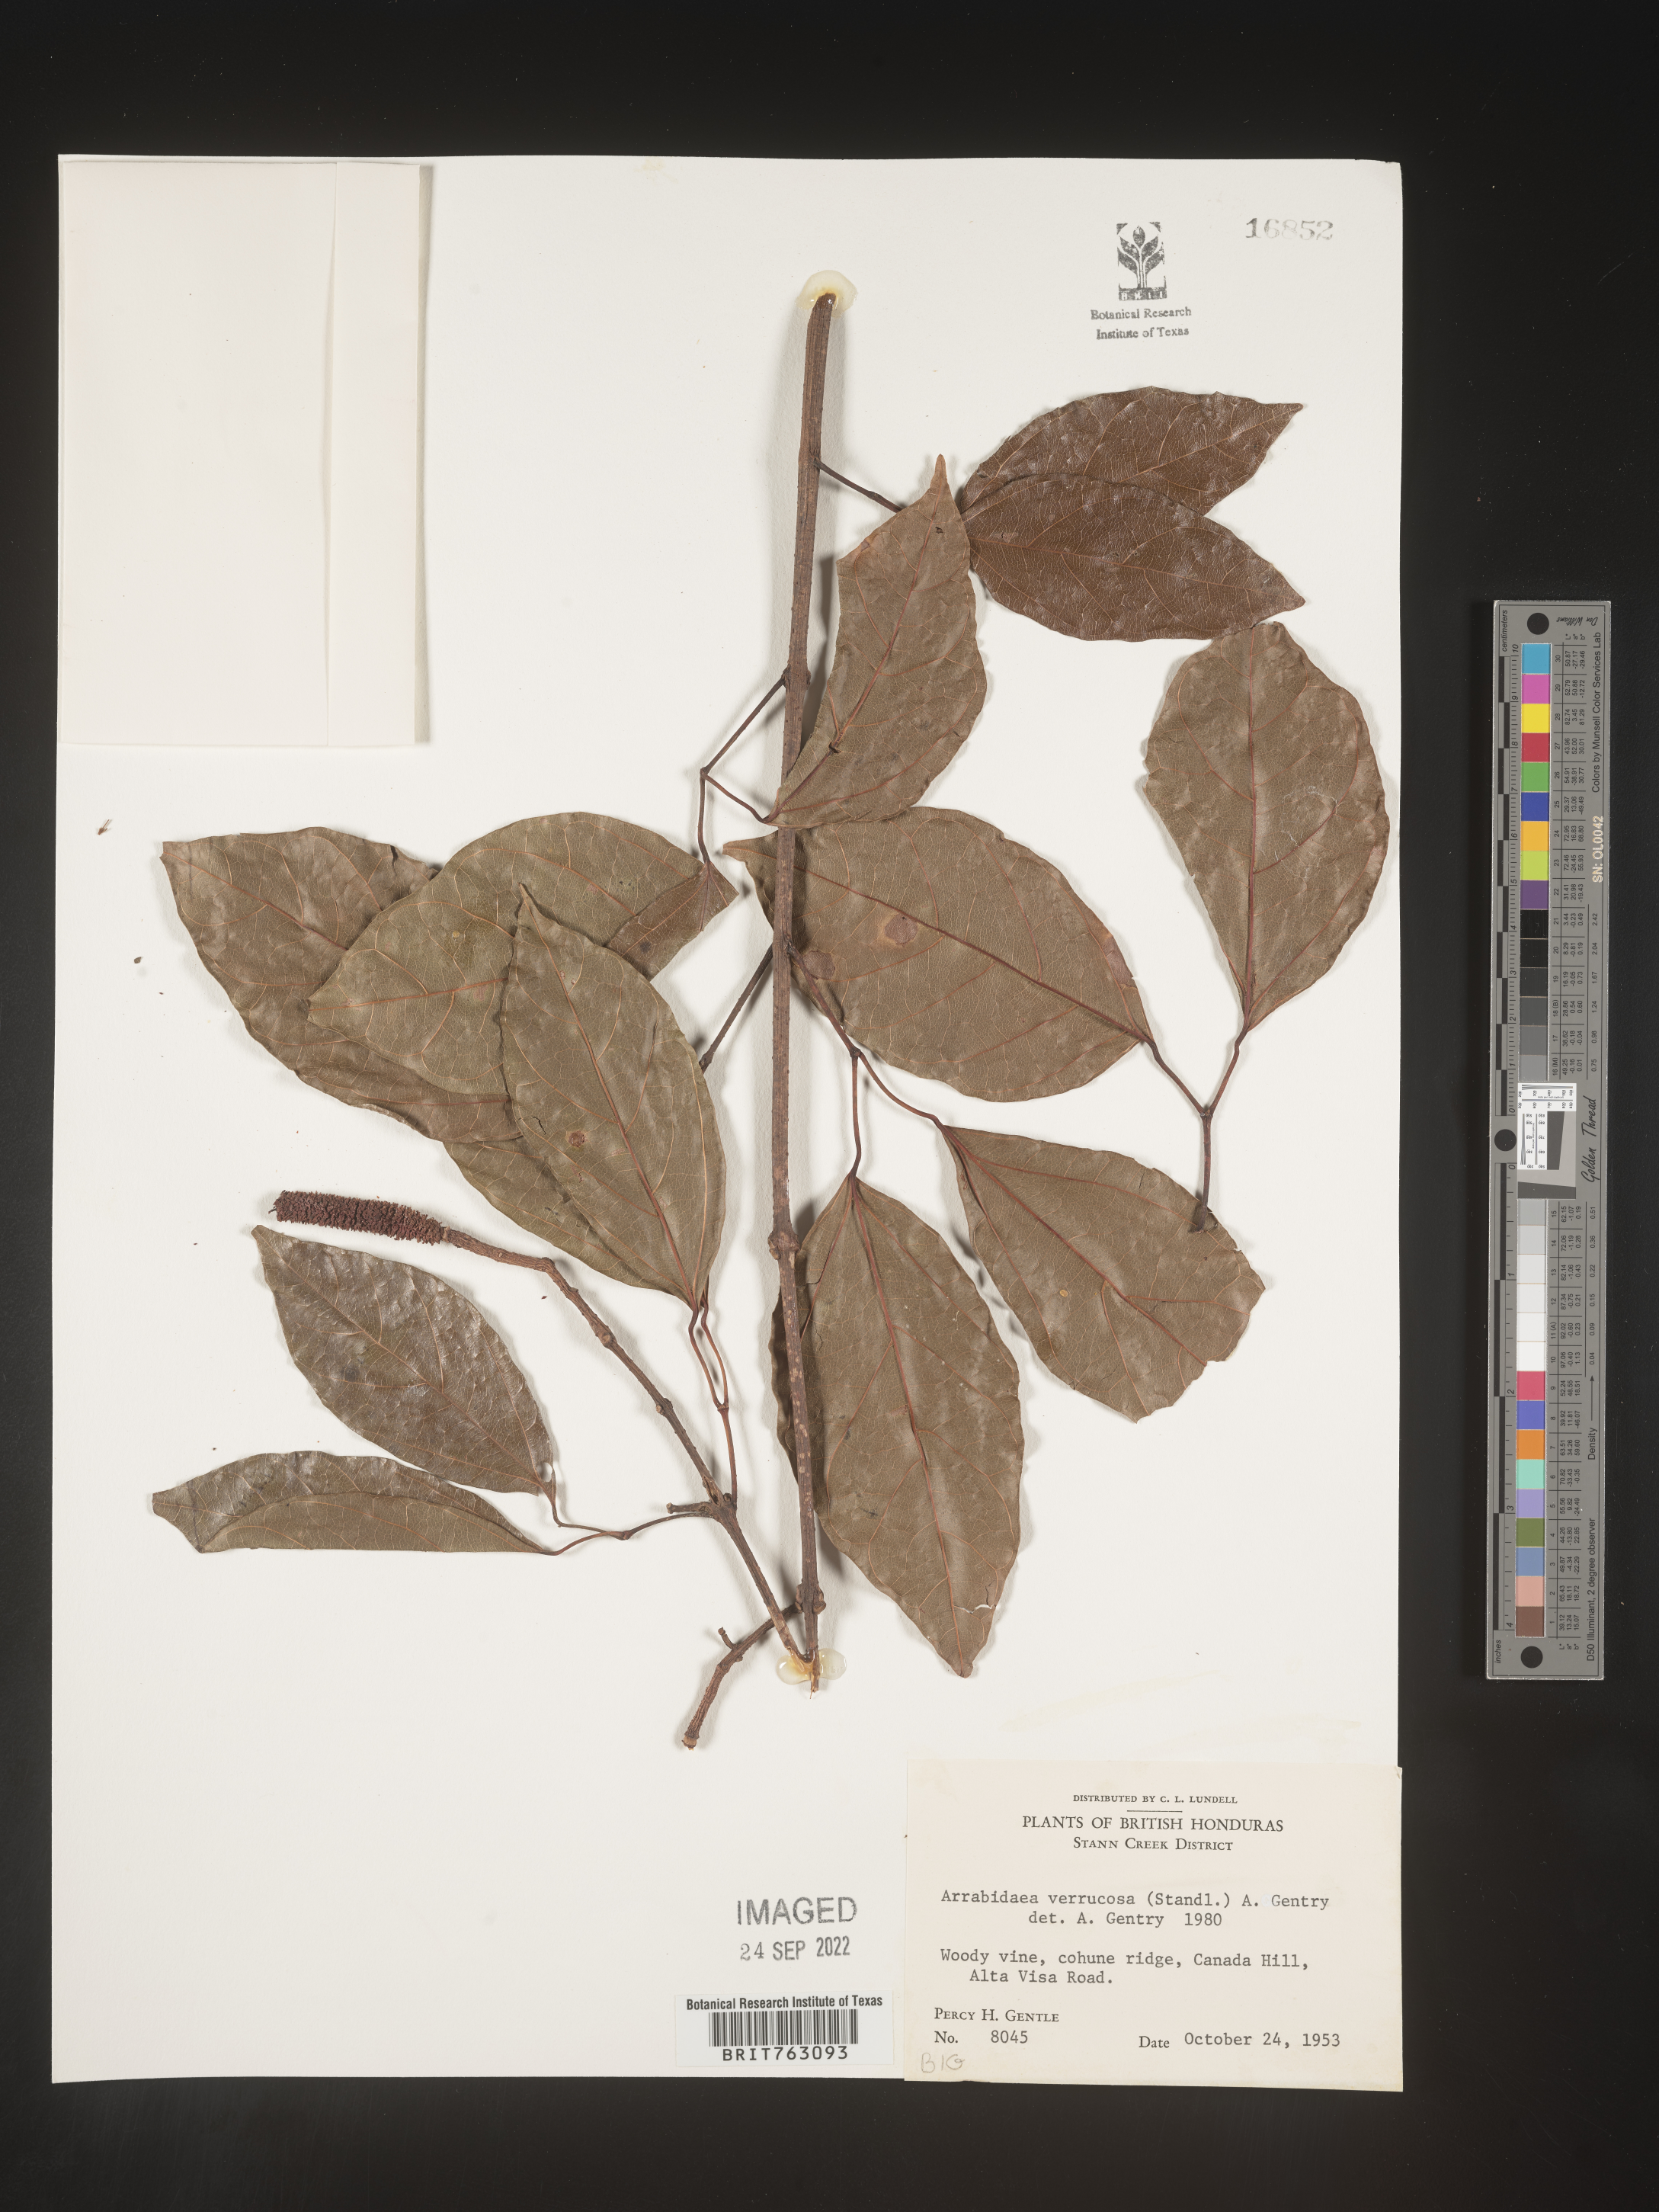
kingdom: Plantae
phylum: Tracheophyta
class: Magnoliopsida
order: Rosales
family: Rhamnaceae
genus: Arrabidaea
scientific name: Arrabidaea
